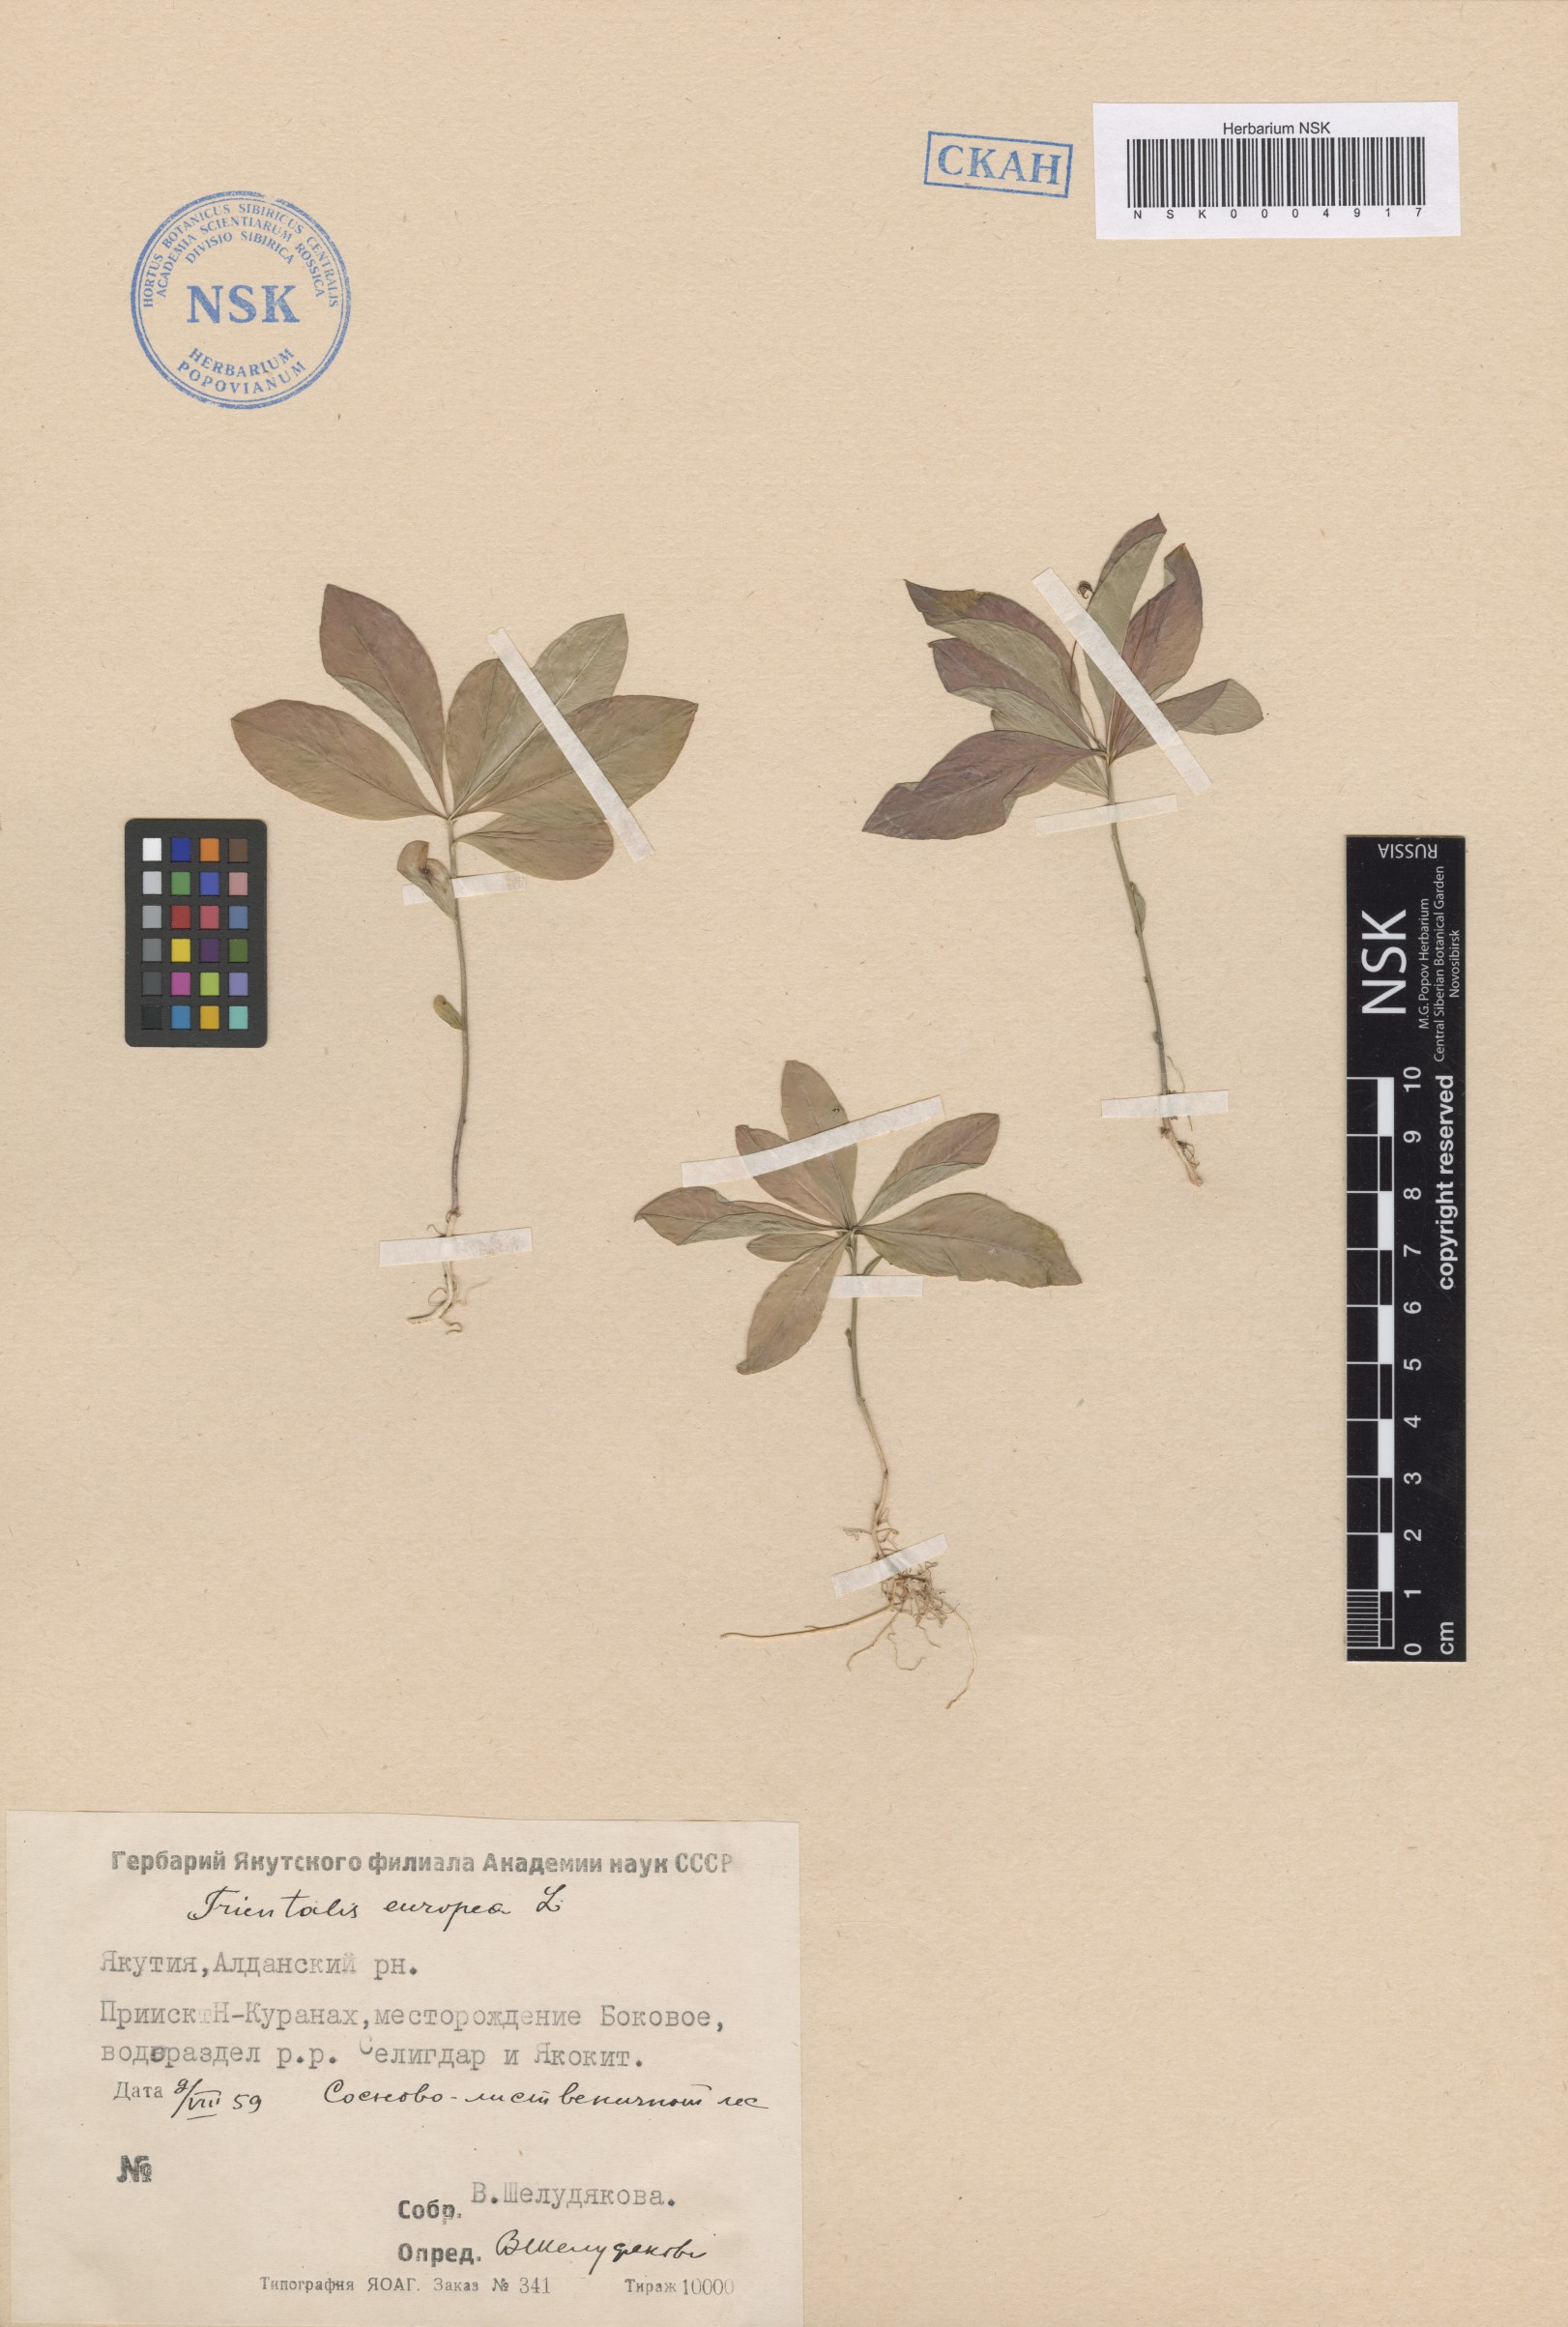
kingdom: Plantae
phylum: Tracheophyta
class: Magnoliopsida
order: Ericales
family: Primulaceae
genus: Lysimachia
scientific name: Lysimachia europaea
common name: Arctic starflower
